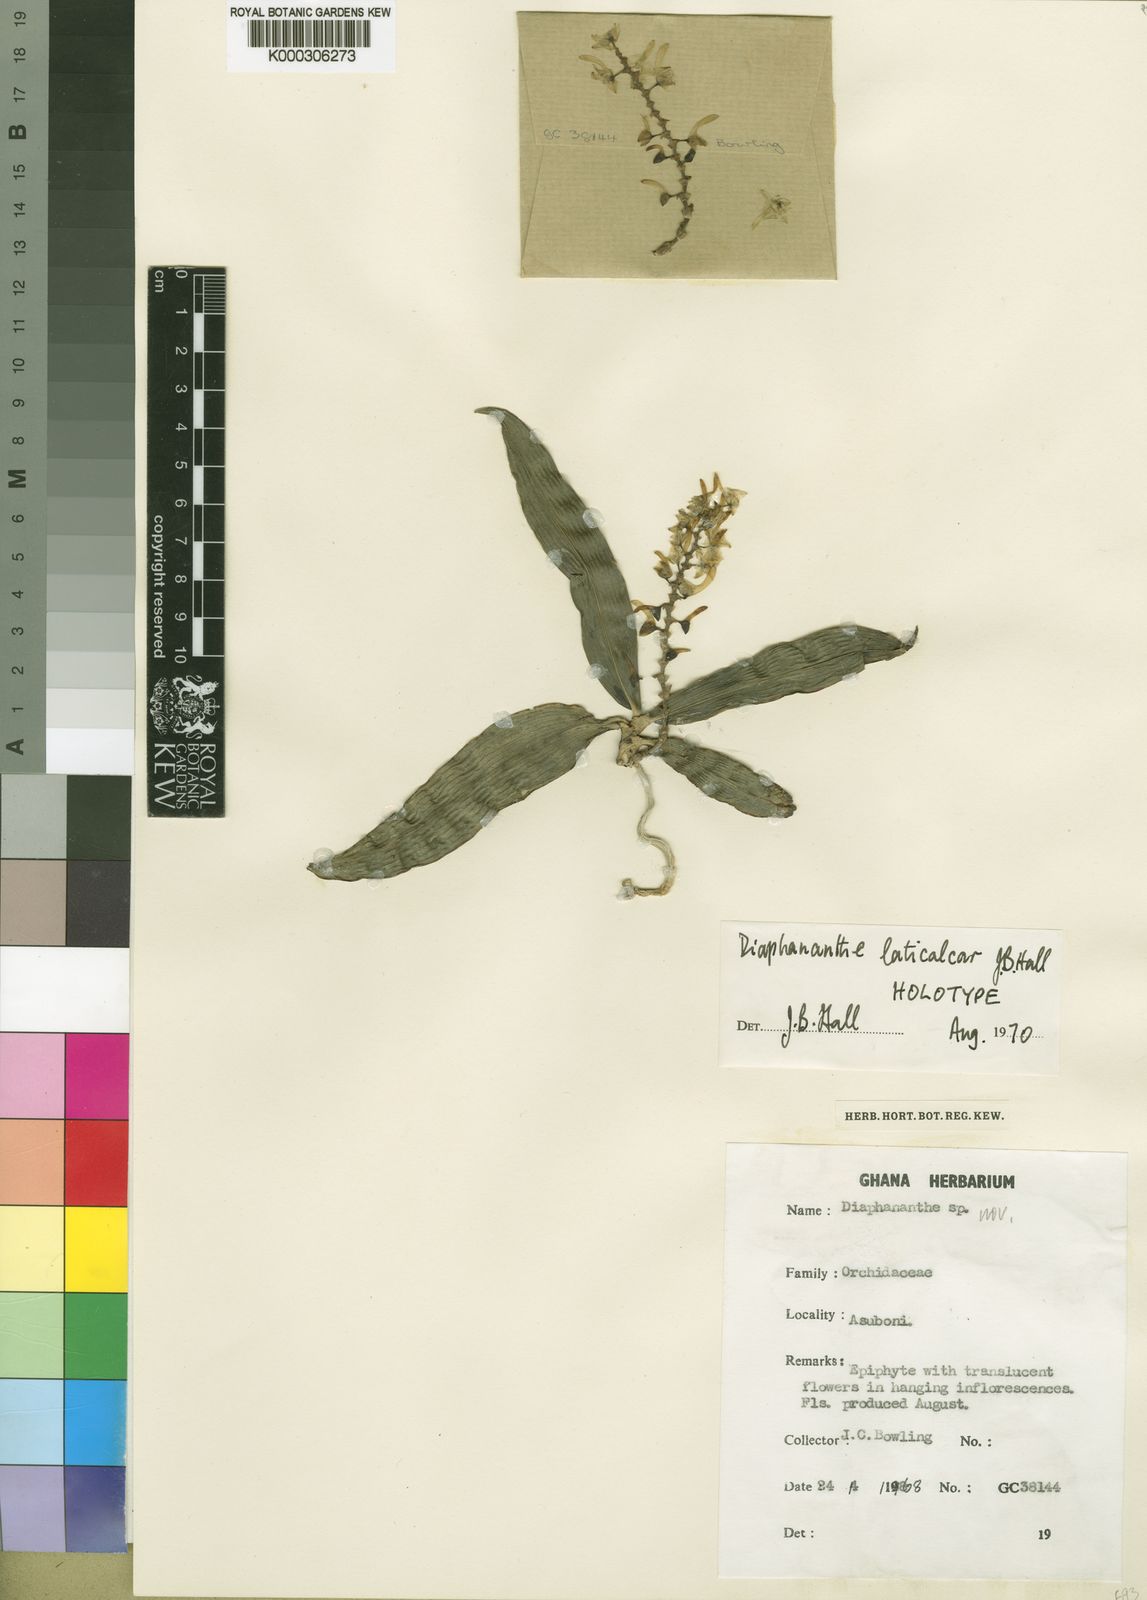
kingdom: Plantae
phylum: Tracheophyta
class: Liliopsida
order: Asparagales
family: Orchidaceae
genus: Rhipidoglossum
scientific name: Rhipidoglossum laticalcar
